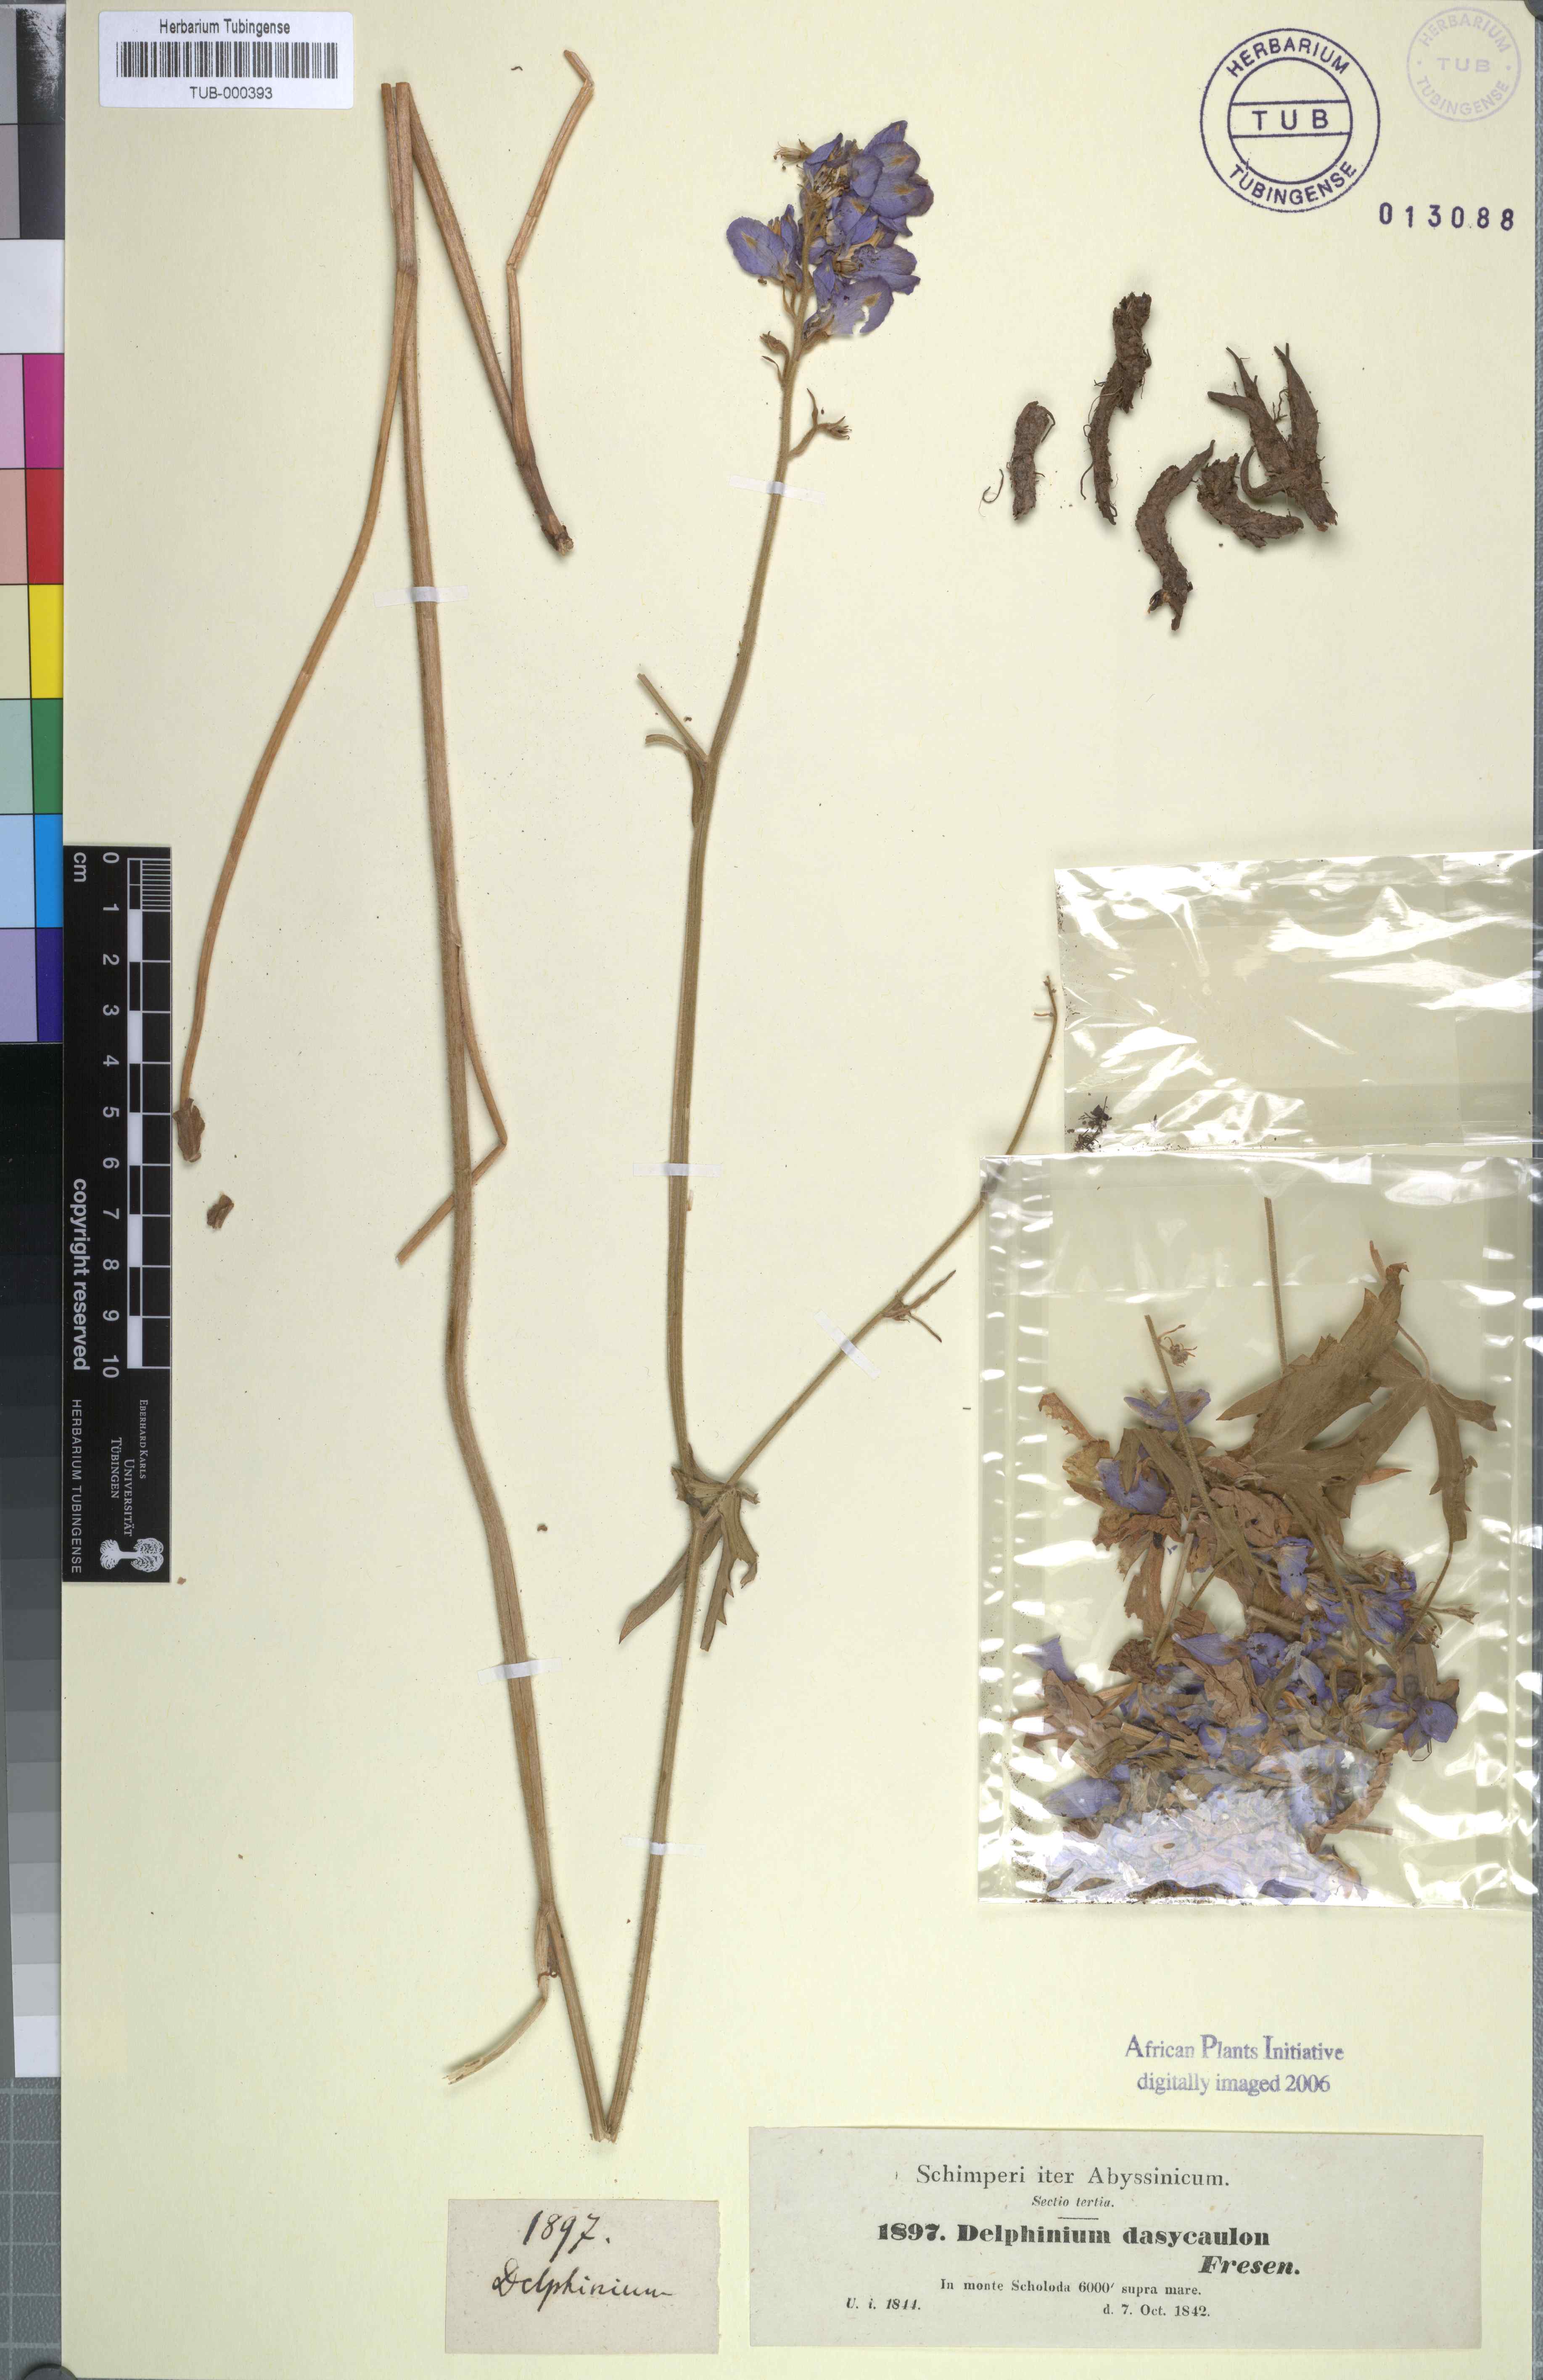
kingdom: Plantae
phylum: Tracheophyta
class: Magnoliopsida
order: Ranunculales
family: Ranunculaceae
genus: Delphinium
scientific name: Delphinium dasycaulon
